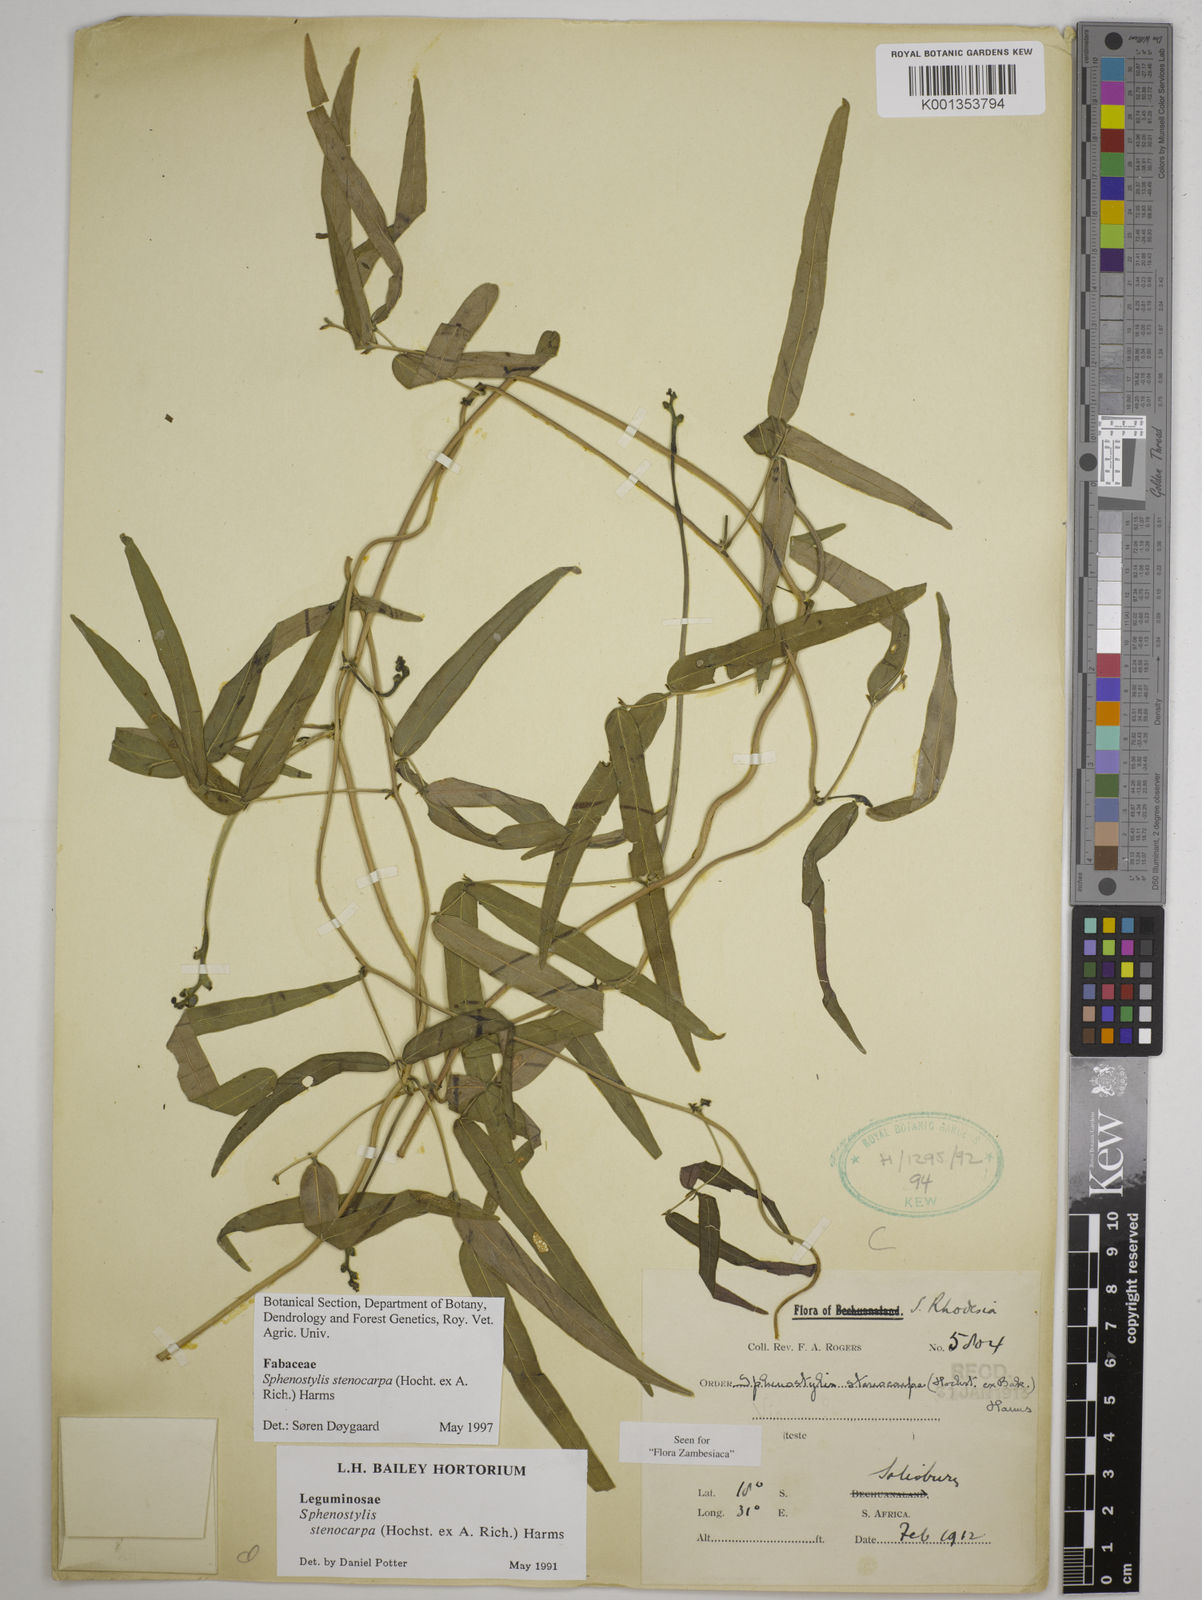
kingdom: Plantae
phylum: Tracheophyta
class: Magnoliopsida
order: Fabales
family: Fabaceae
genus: Sphenostylis
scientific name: Sphenostylis stenocarpa
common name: Yam-pea
